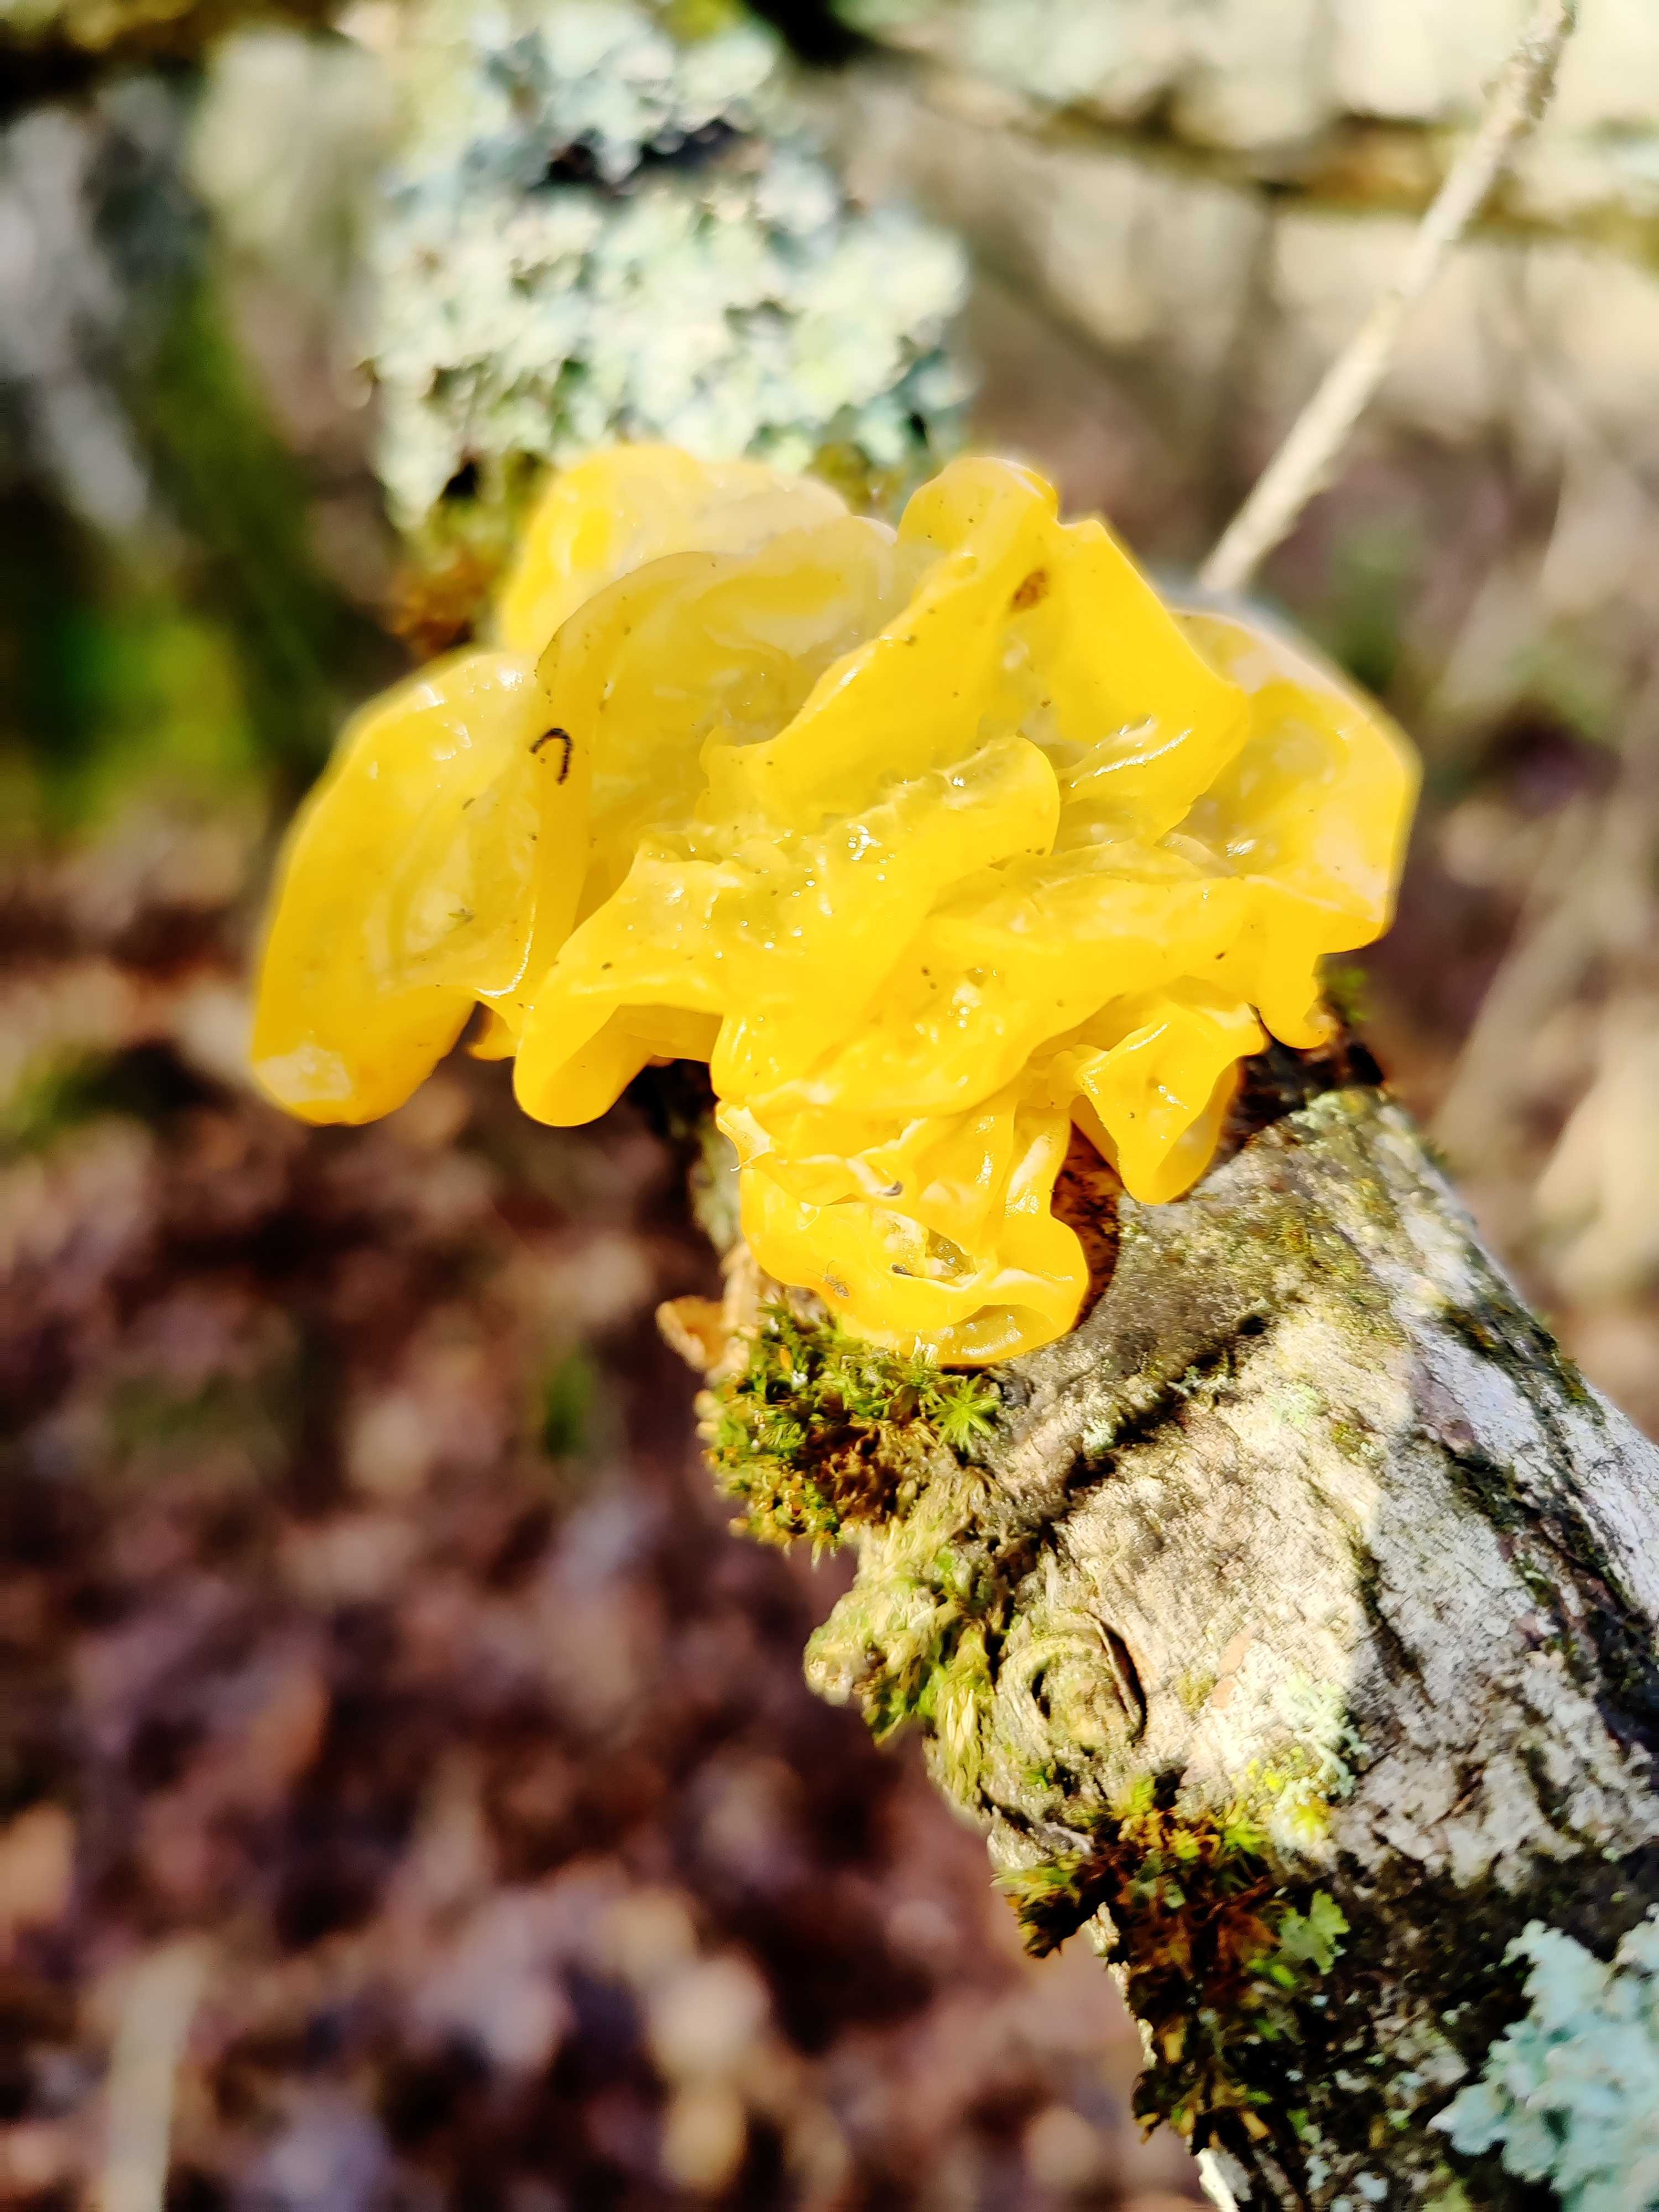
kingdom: Fungi
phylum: Basidiomycota
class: Tremellomycetes
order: Tremellales
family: Tremellaceae
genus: Tremella
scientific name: Tremella mesenterica
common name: gul bævresvamp
